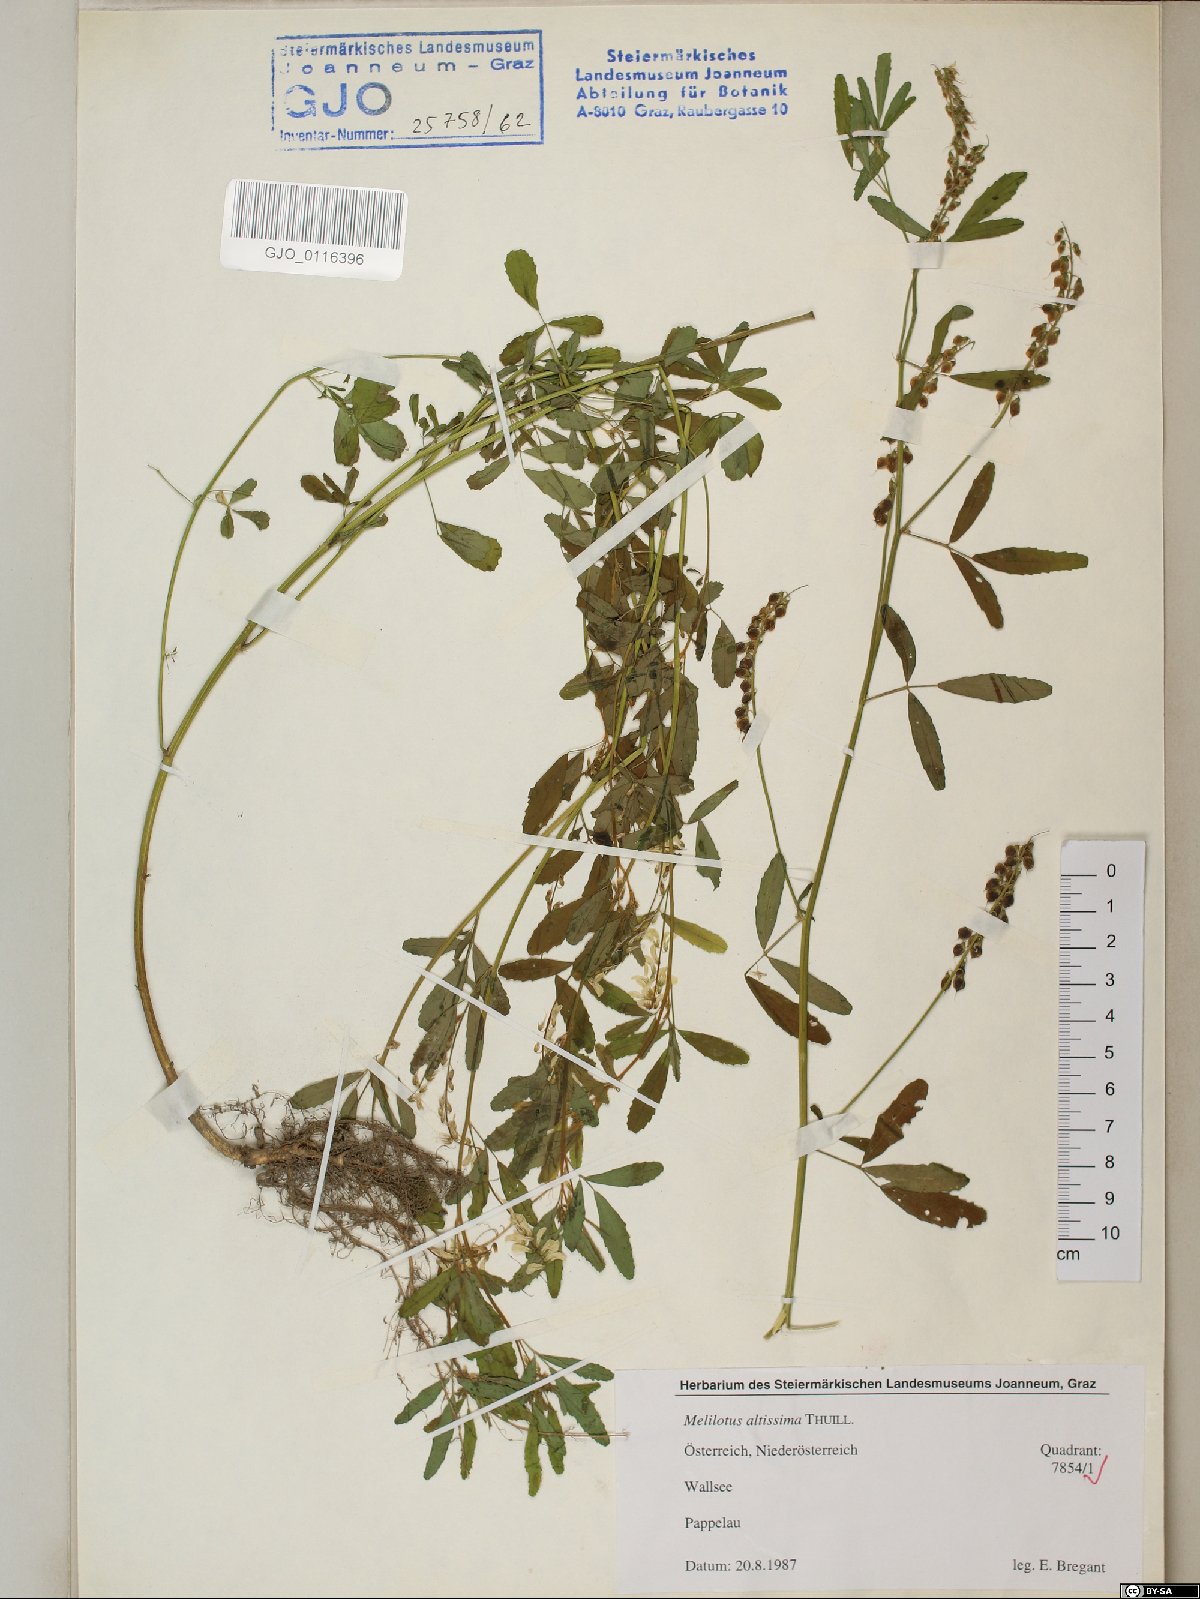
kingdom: Plantae
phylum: Tracheophyta
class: Magnoliopsida
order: Fabales
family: Fabaceae
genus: Melilotus
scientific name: Melilotus altissimus
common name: Tall melilot
